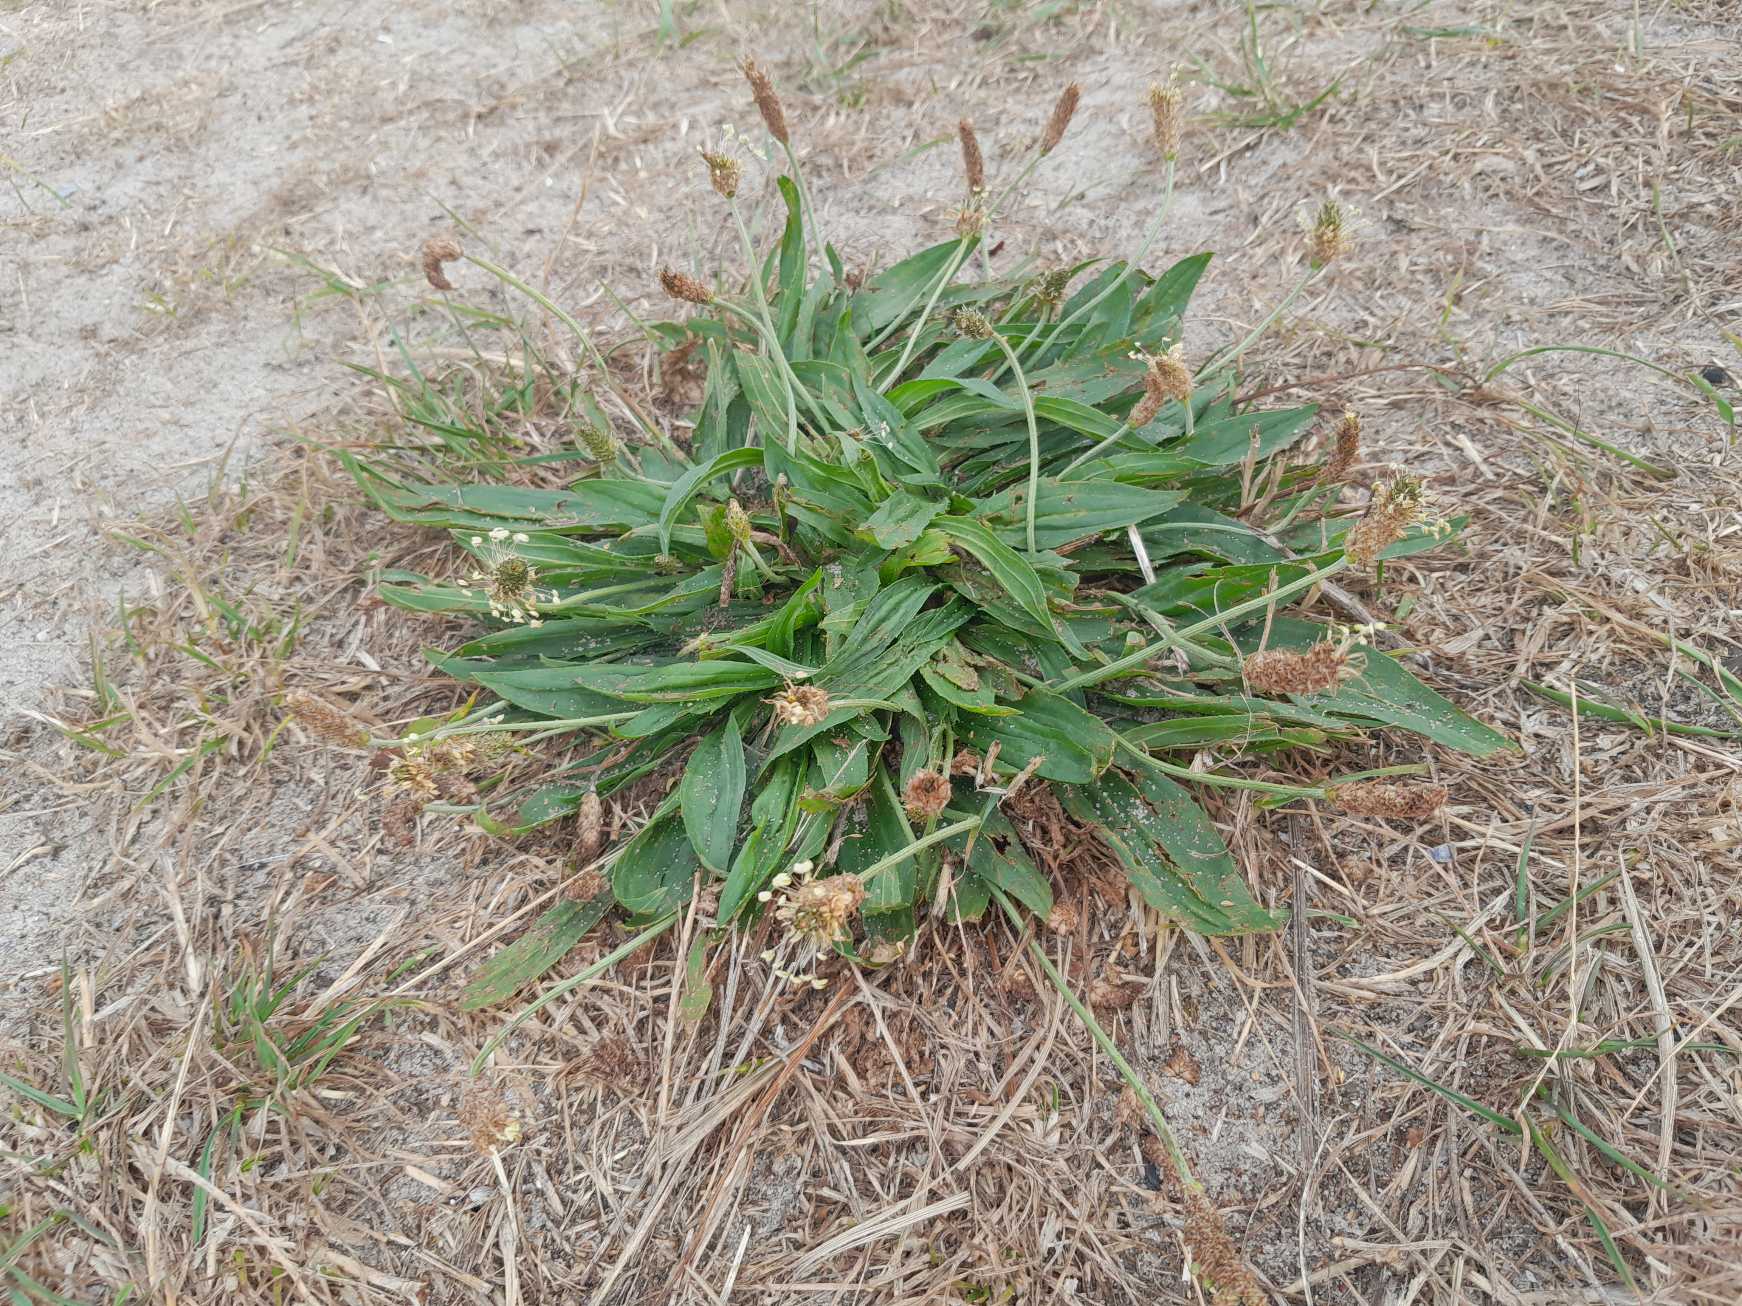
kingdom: Plantae
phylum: Tracheophyta
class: Magnoliopsida
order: Lamiales
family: Plantaginaceae
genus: Plantago
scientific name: Plantago lanceolata
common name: Lancet-vejbred
